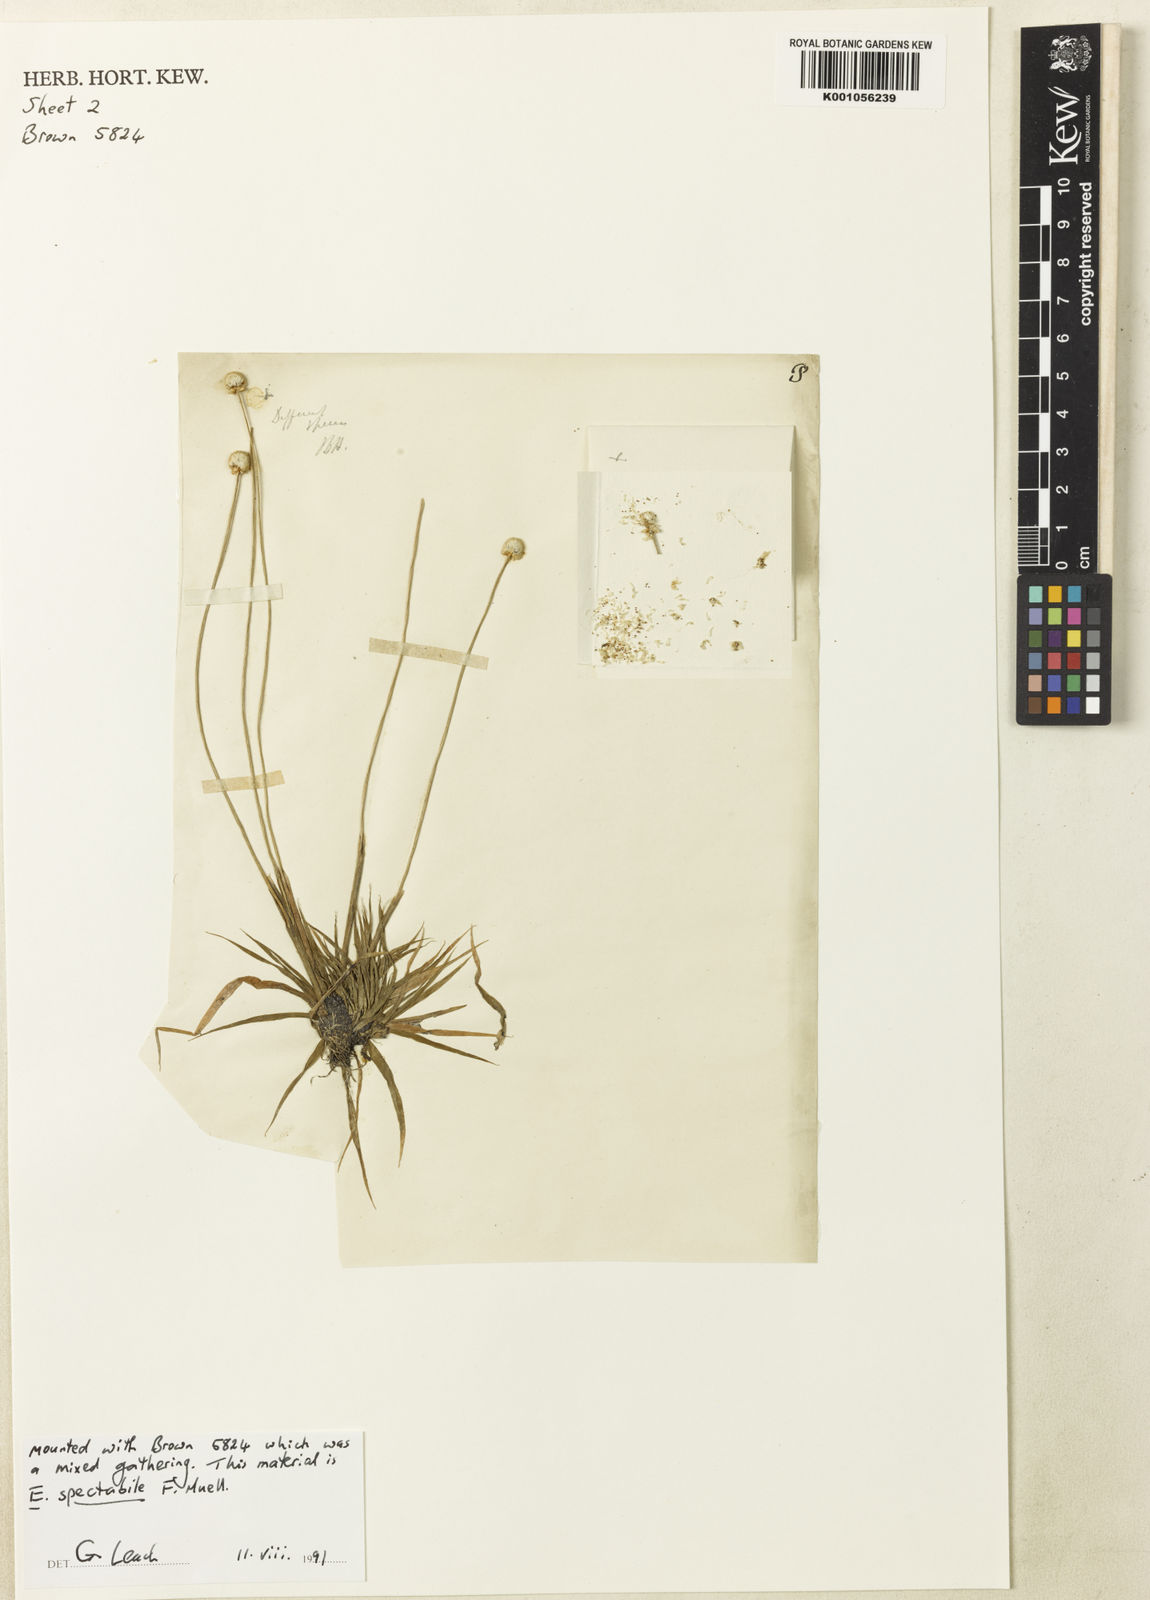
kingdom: Plantae
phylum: Tracheophyta
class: Liliopsida
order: Poales
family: Eriocaulaceae
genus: Eriocaulon
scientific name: Eriocaulon brunonis
